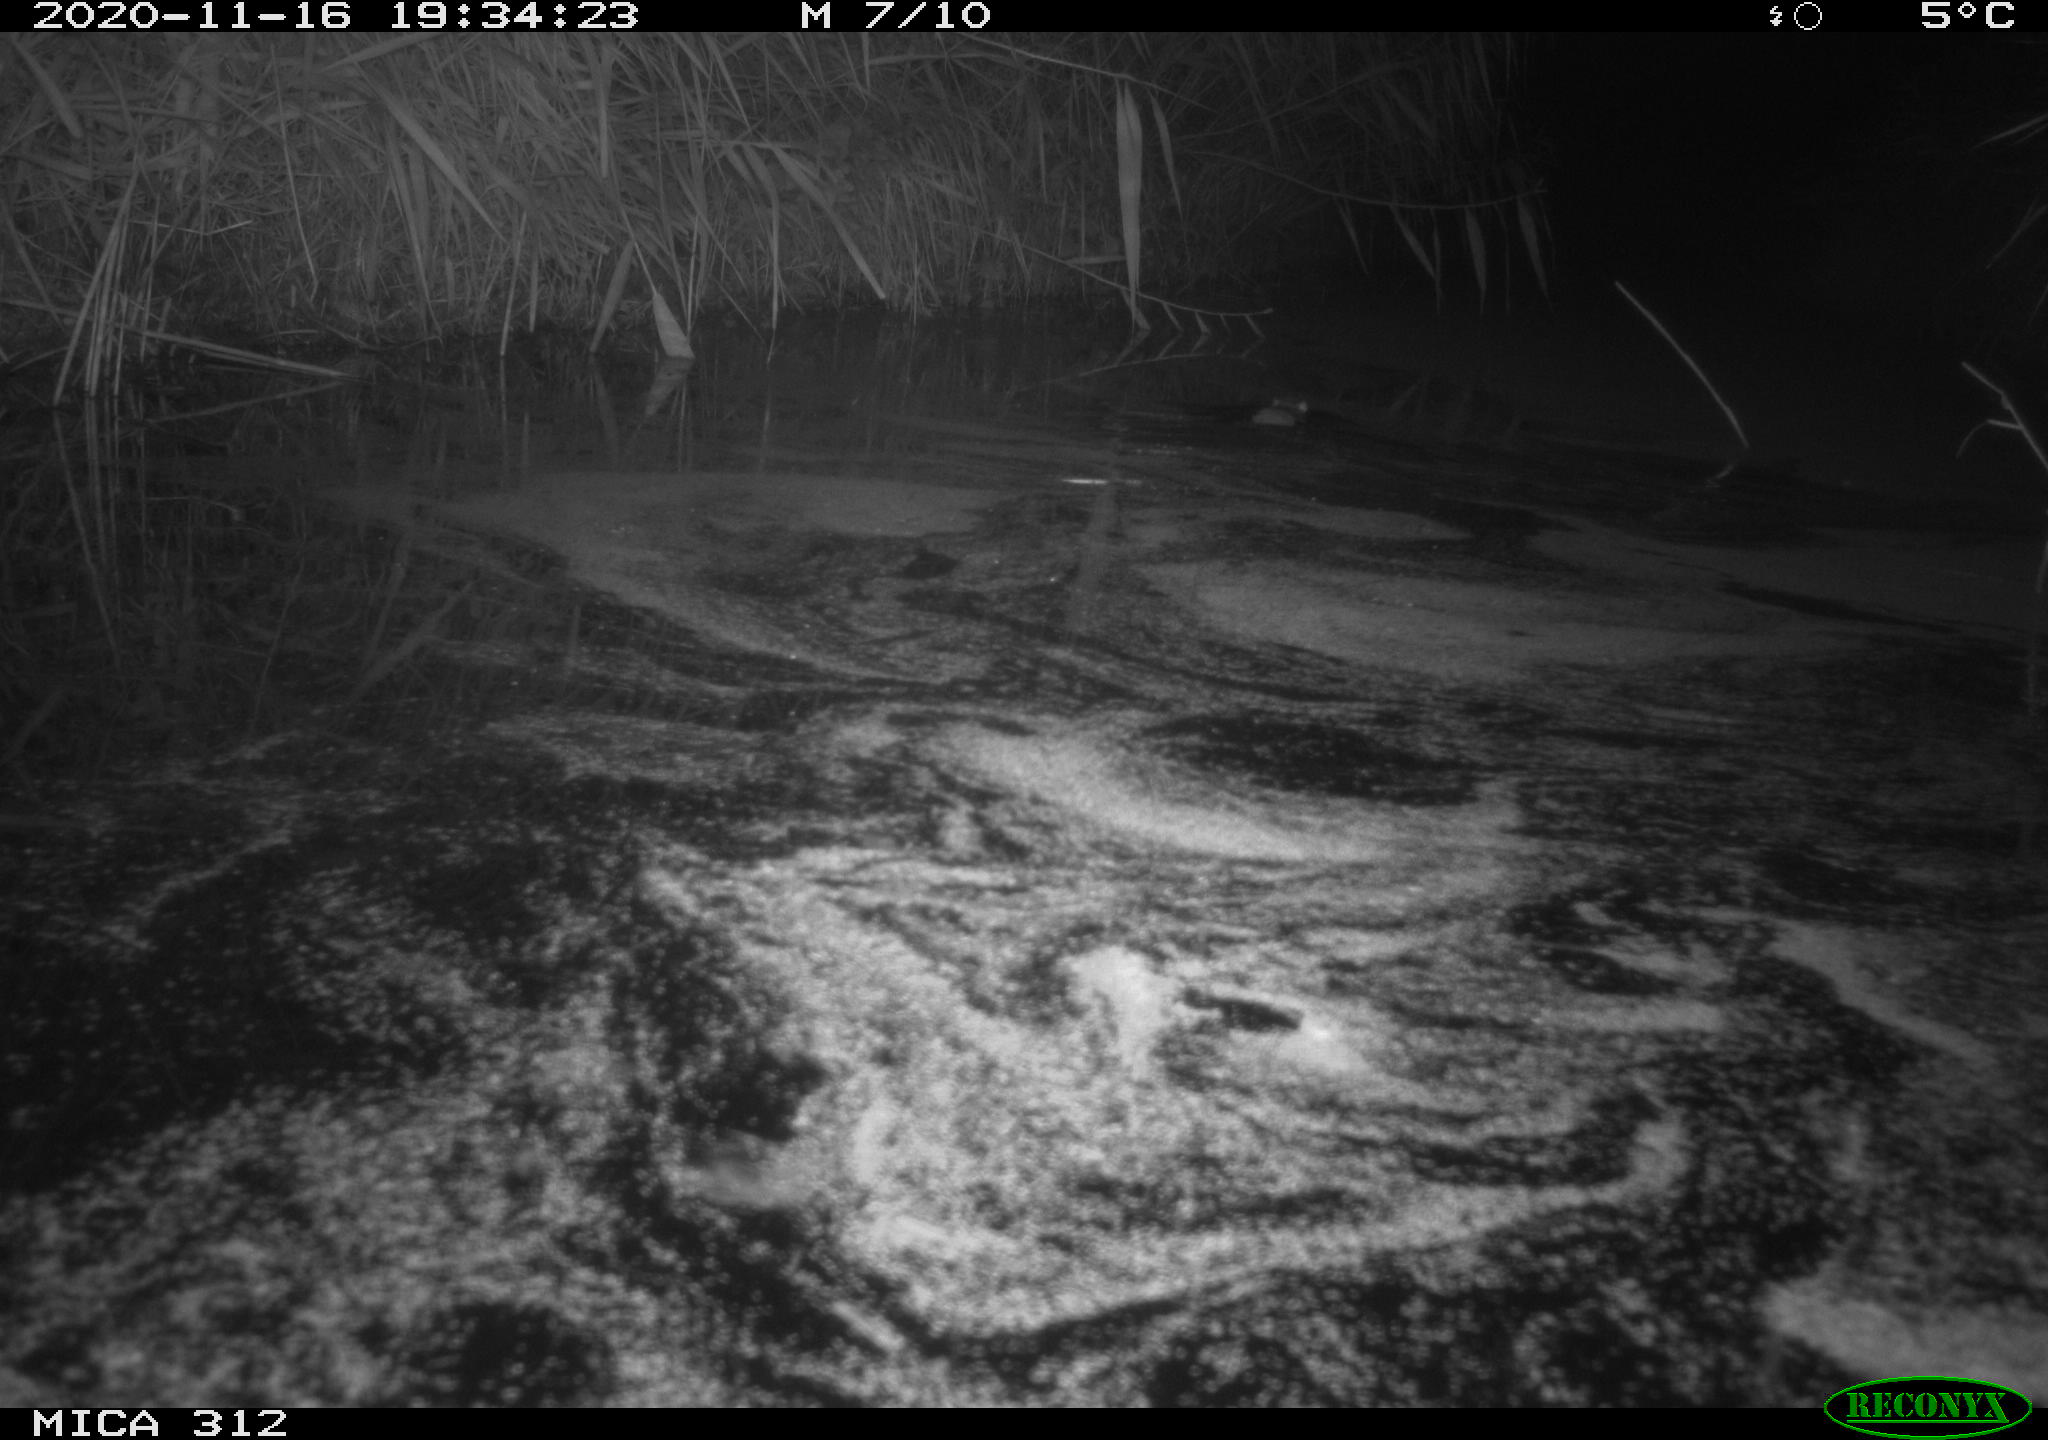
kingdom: Animalia
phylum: Chordata
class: Mammalia
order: Rodentia
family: Muridae
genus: Rattus
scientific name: Rattus norvegicus
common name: Brown rat
